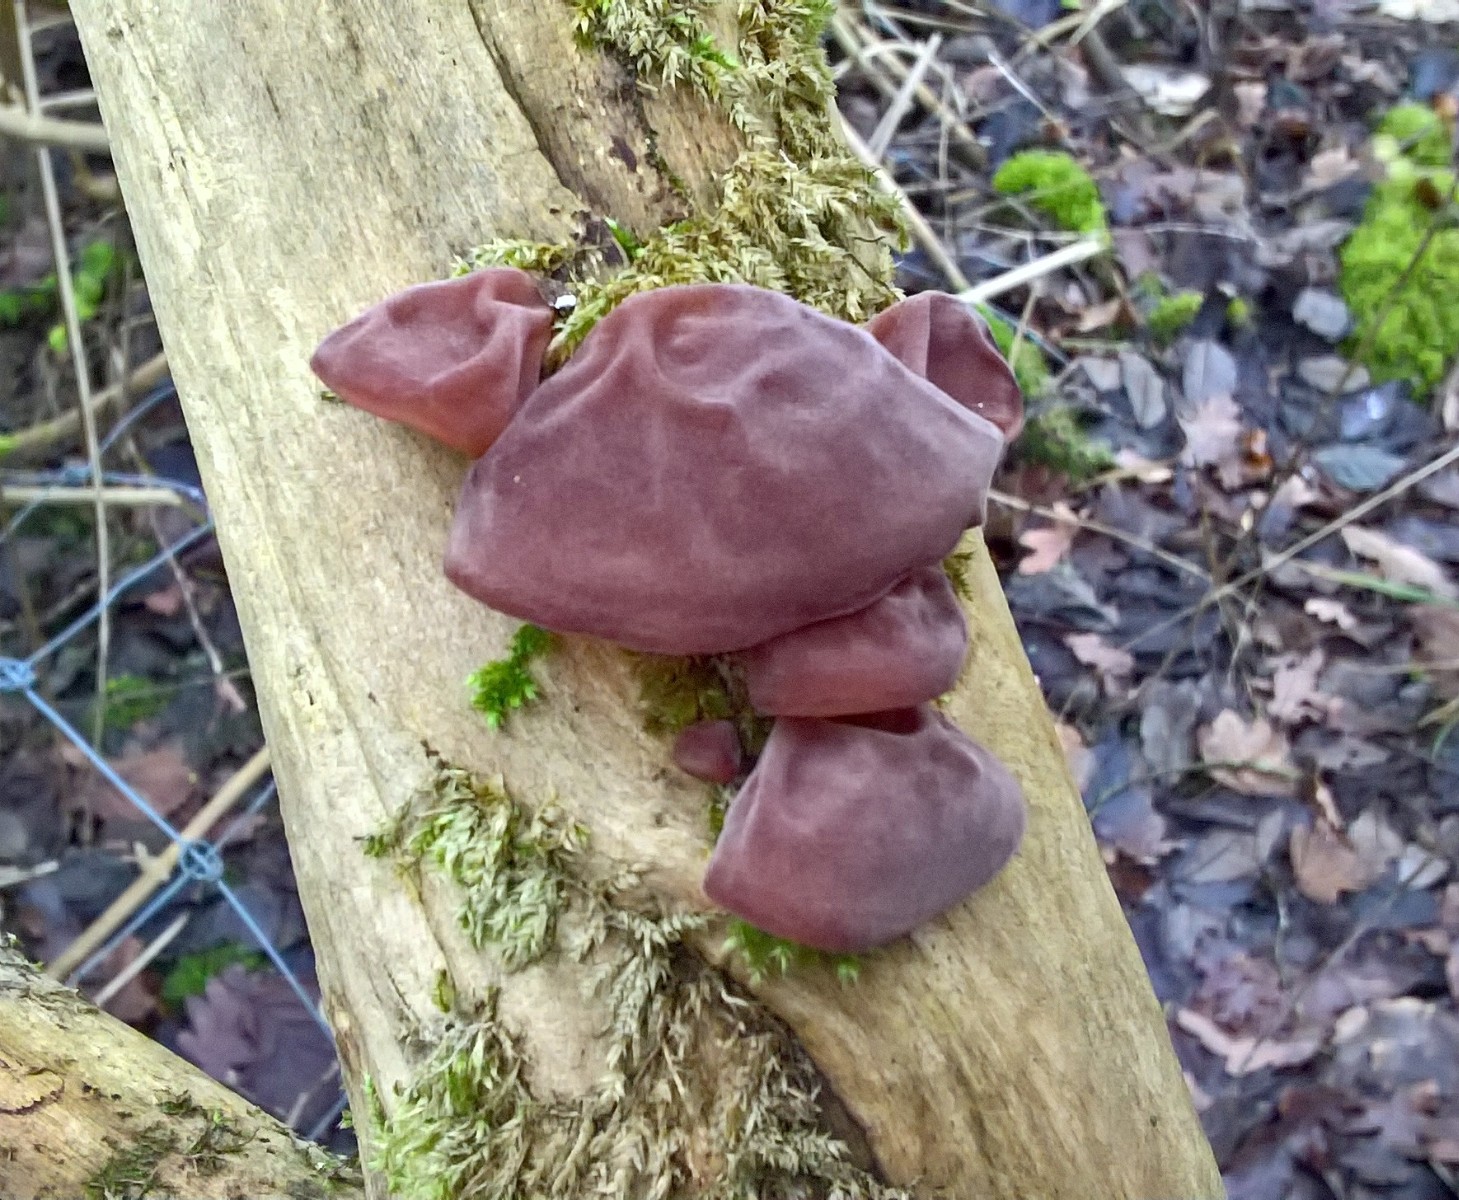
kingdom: Fungi
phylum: Basidiomycota
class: Agaricomycetes
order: Auriculariales
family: Auriculariaceae
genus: Auricularia
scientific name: Auricularia auricula-judae
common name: almindelig judasøre
